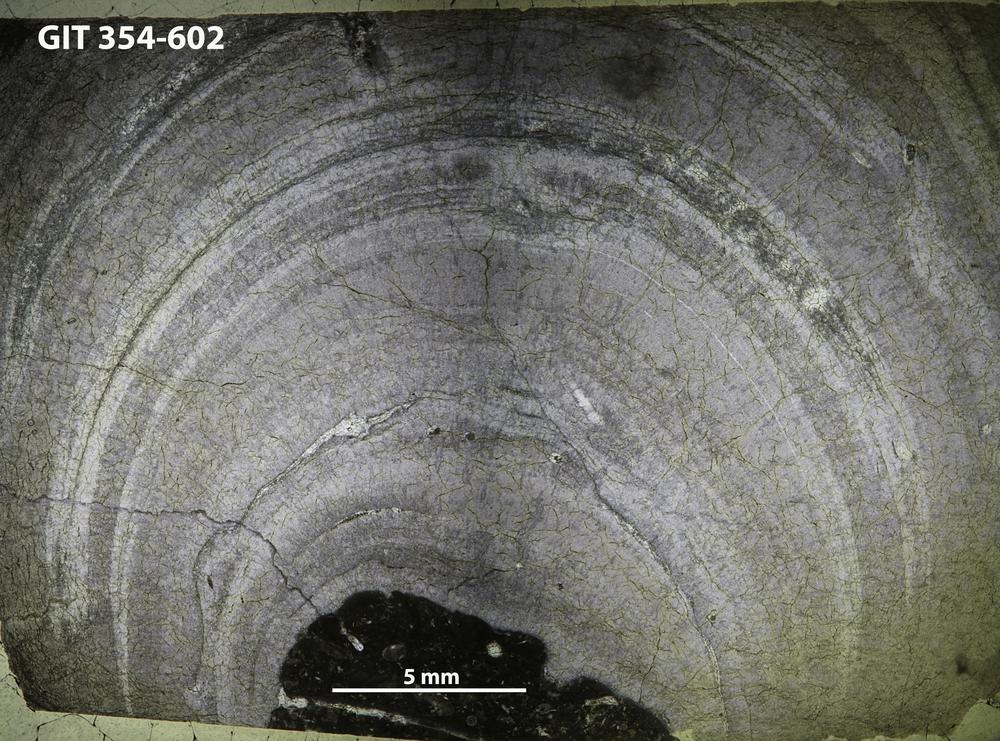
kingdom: Animalia
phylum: Porifera
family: Densastromatidae
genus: Densastroma
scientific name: Densastroma Actinostroma pexisum
